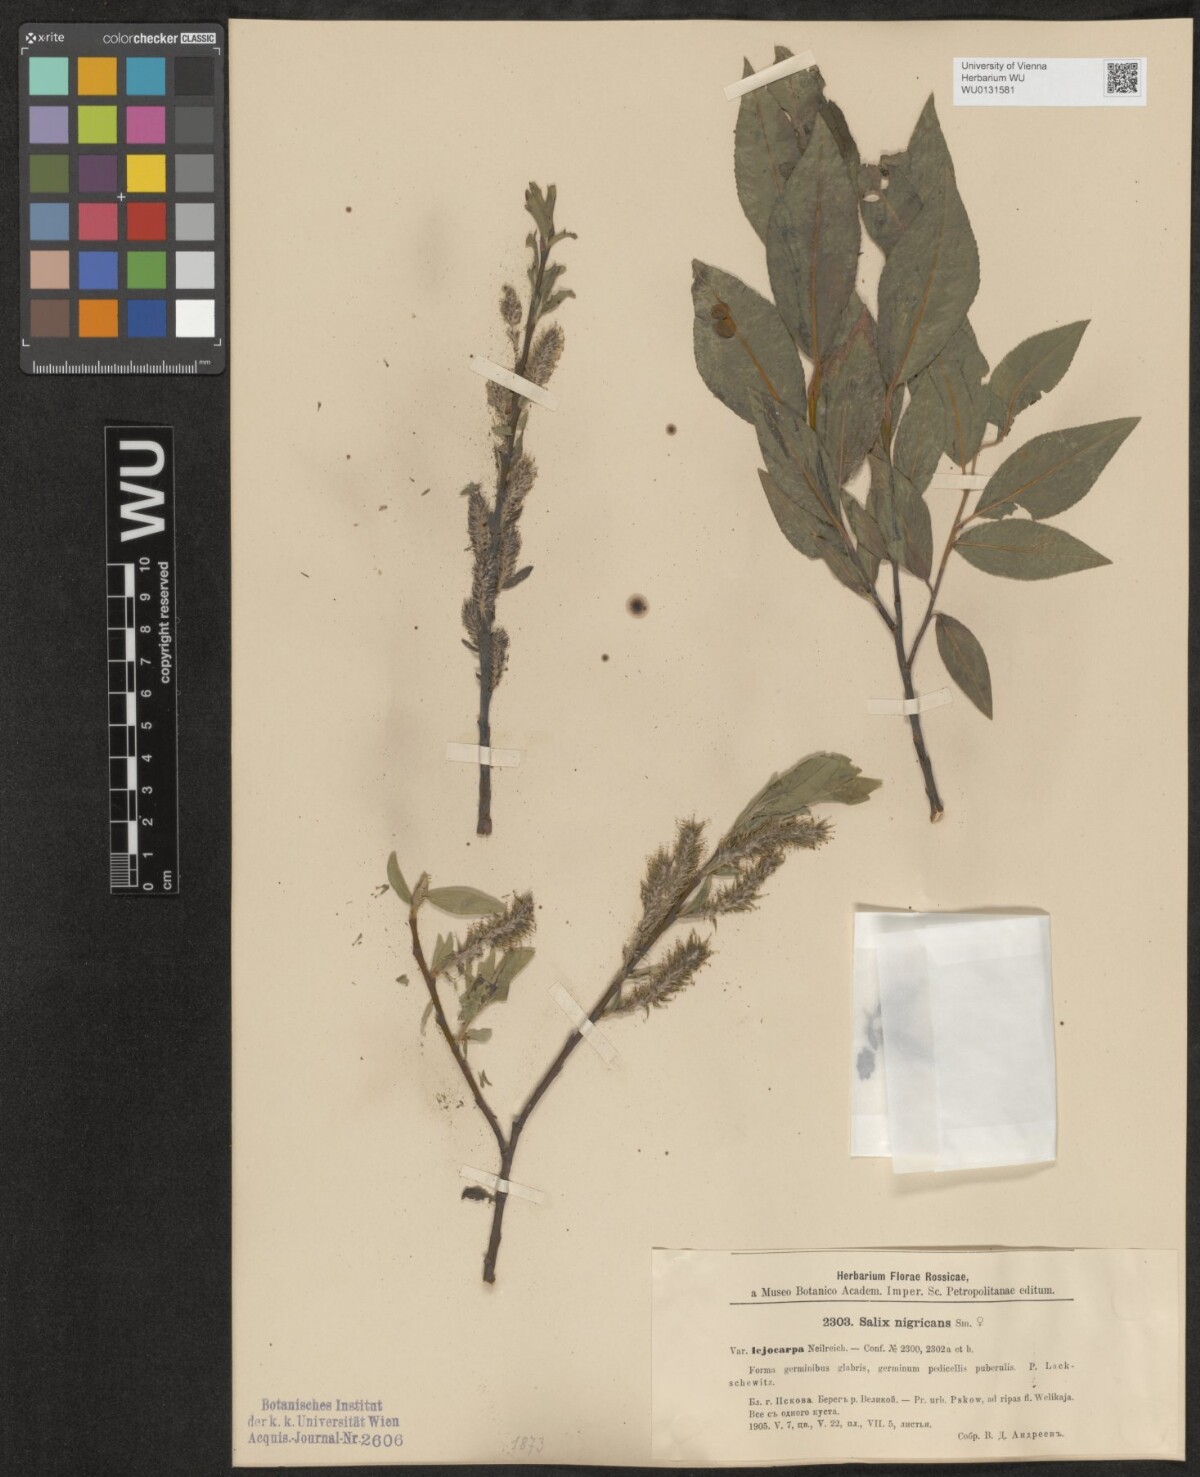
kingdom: Plantae
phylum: Tracheophyta
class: Magnoliopsida
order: Malpighiales
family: Salicaceae
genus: Salix
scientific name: Salix myrsinifolia
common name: Dark-leaved willow
